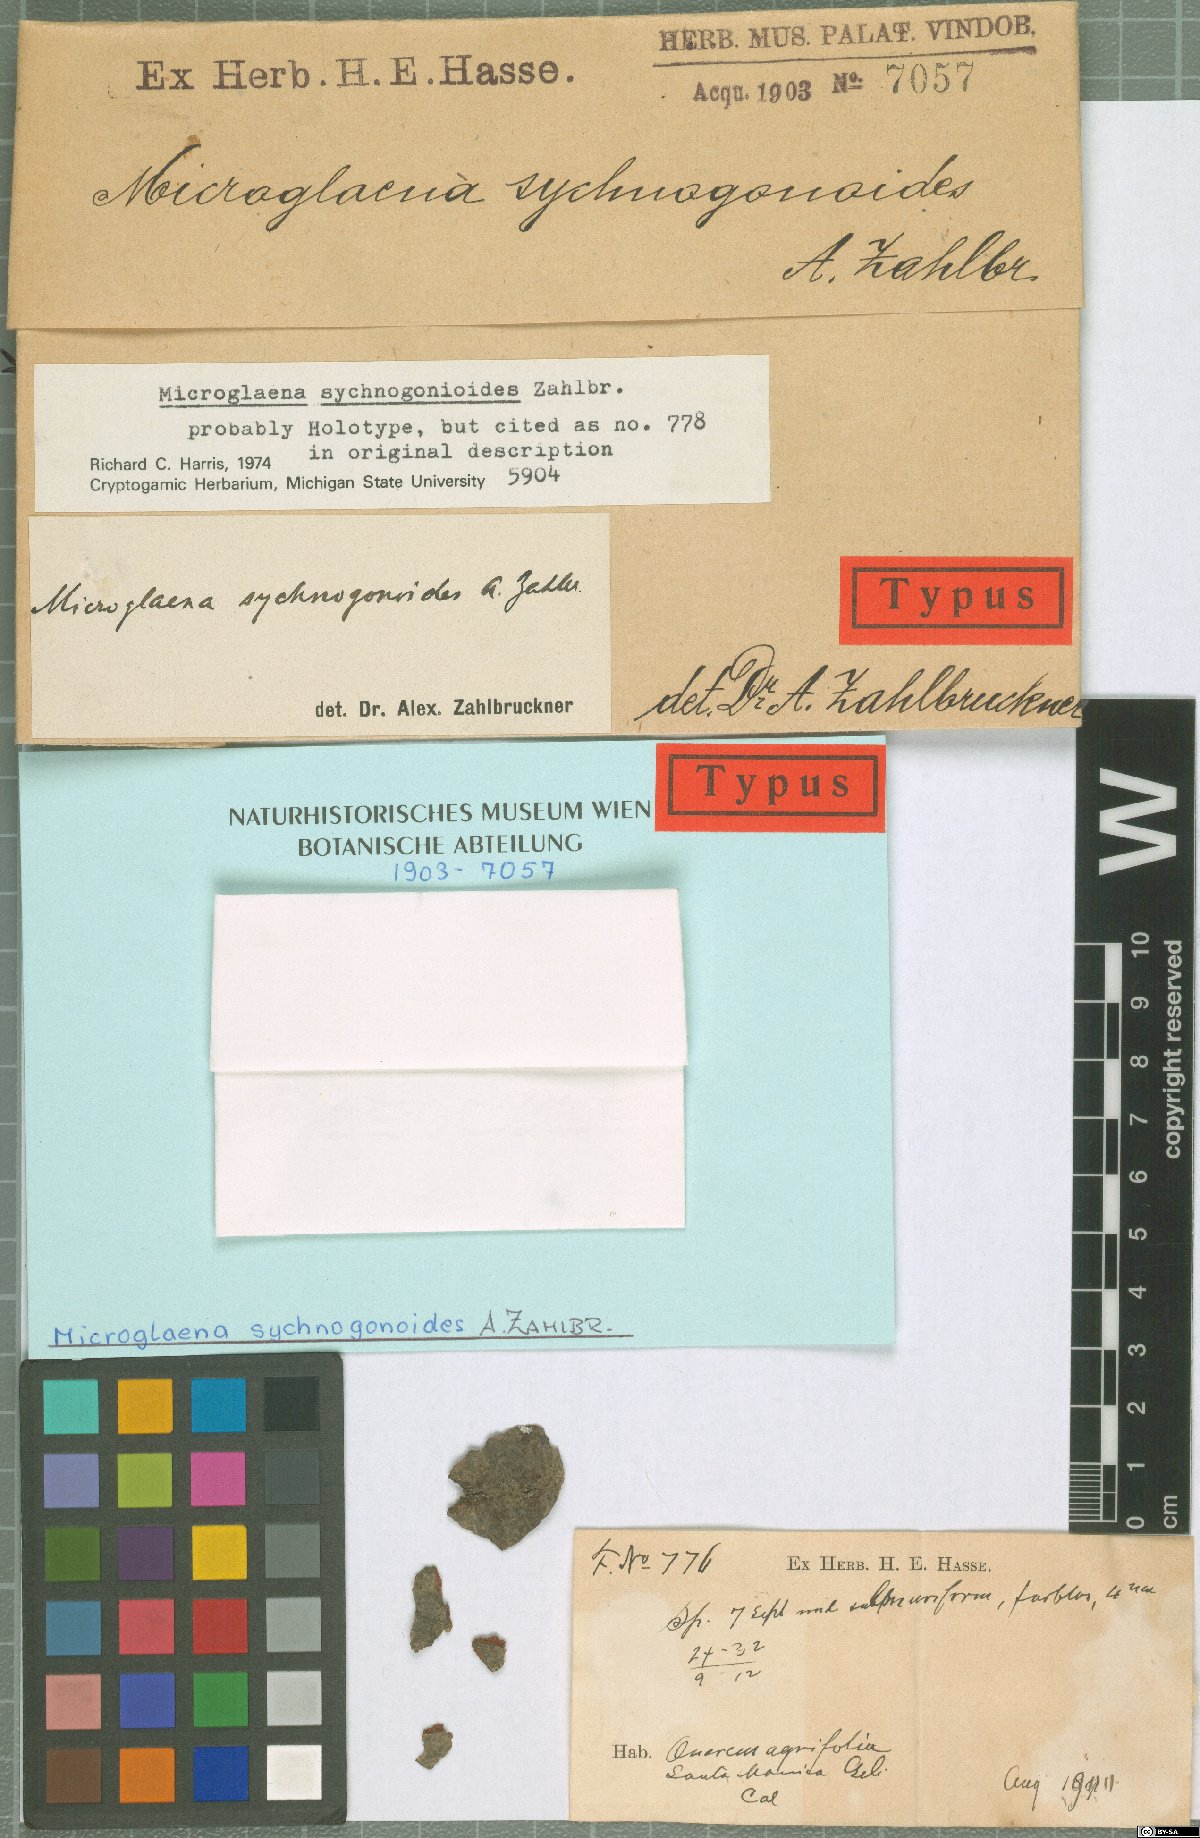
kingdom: Fungi
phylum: Ascomycota
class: Lecanoromycetes
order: Ostropales
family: Thelenellaceae
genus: Thelenella
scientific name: Thelenella sychnogonoides
